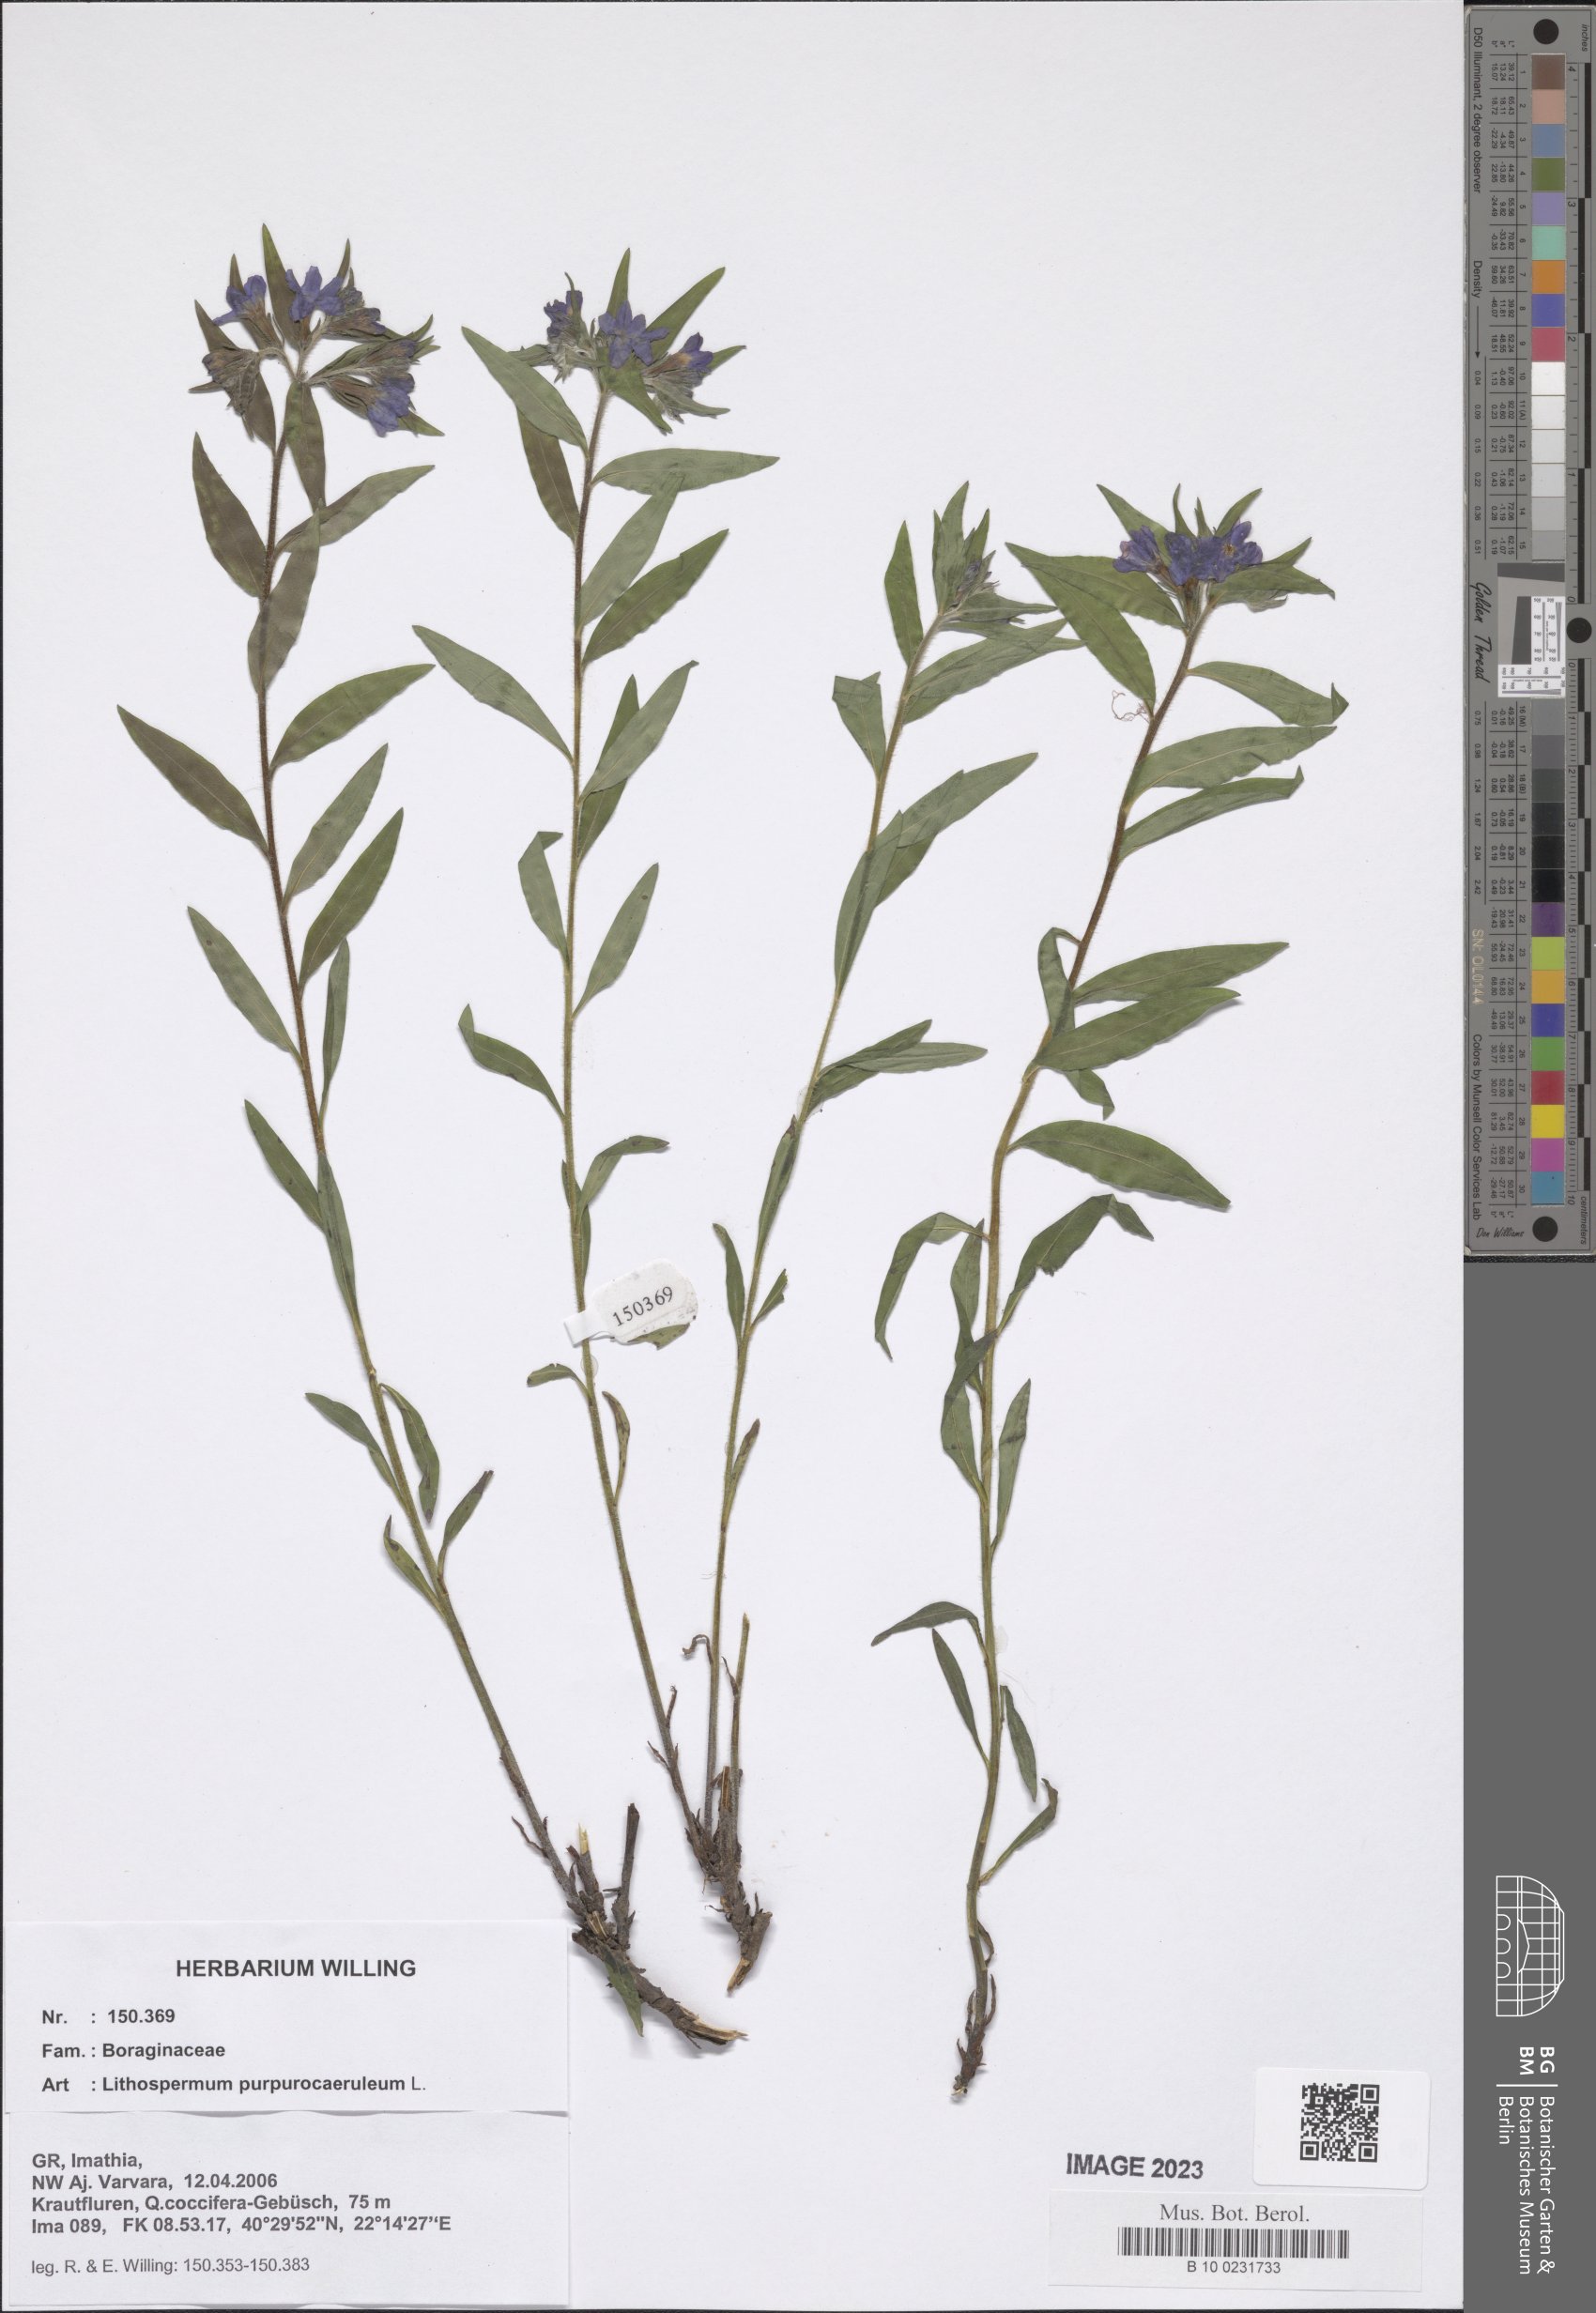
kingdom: Plantae
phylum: Tracheophyta
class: Magnoliopsida
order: Boraginales
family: Boraginaceae
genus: Aegonychon
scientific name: Aegonychon purpurocaeruleum
